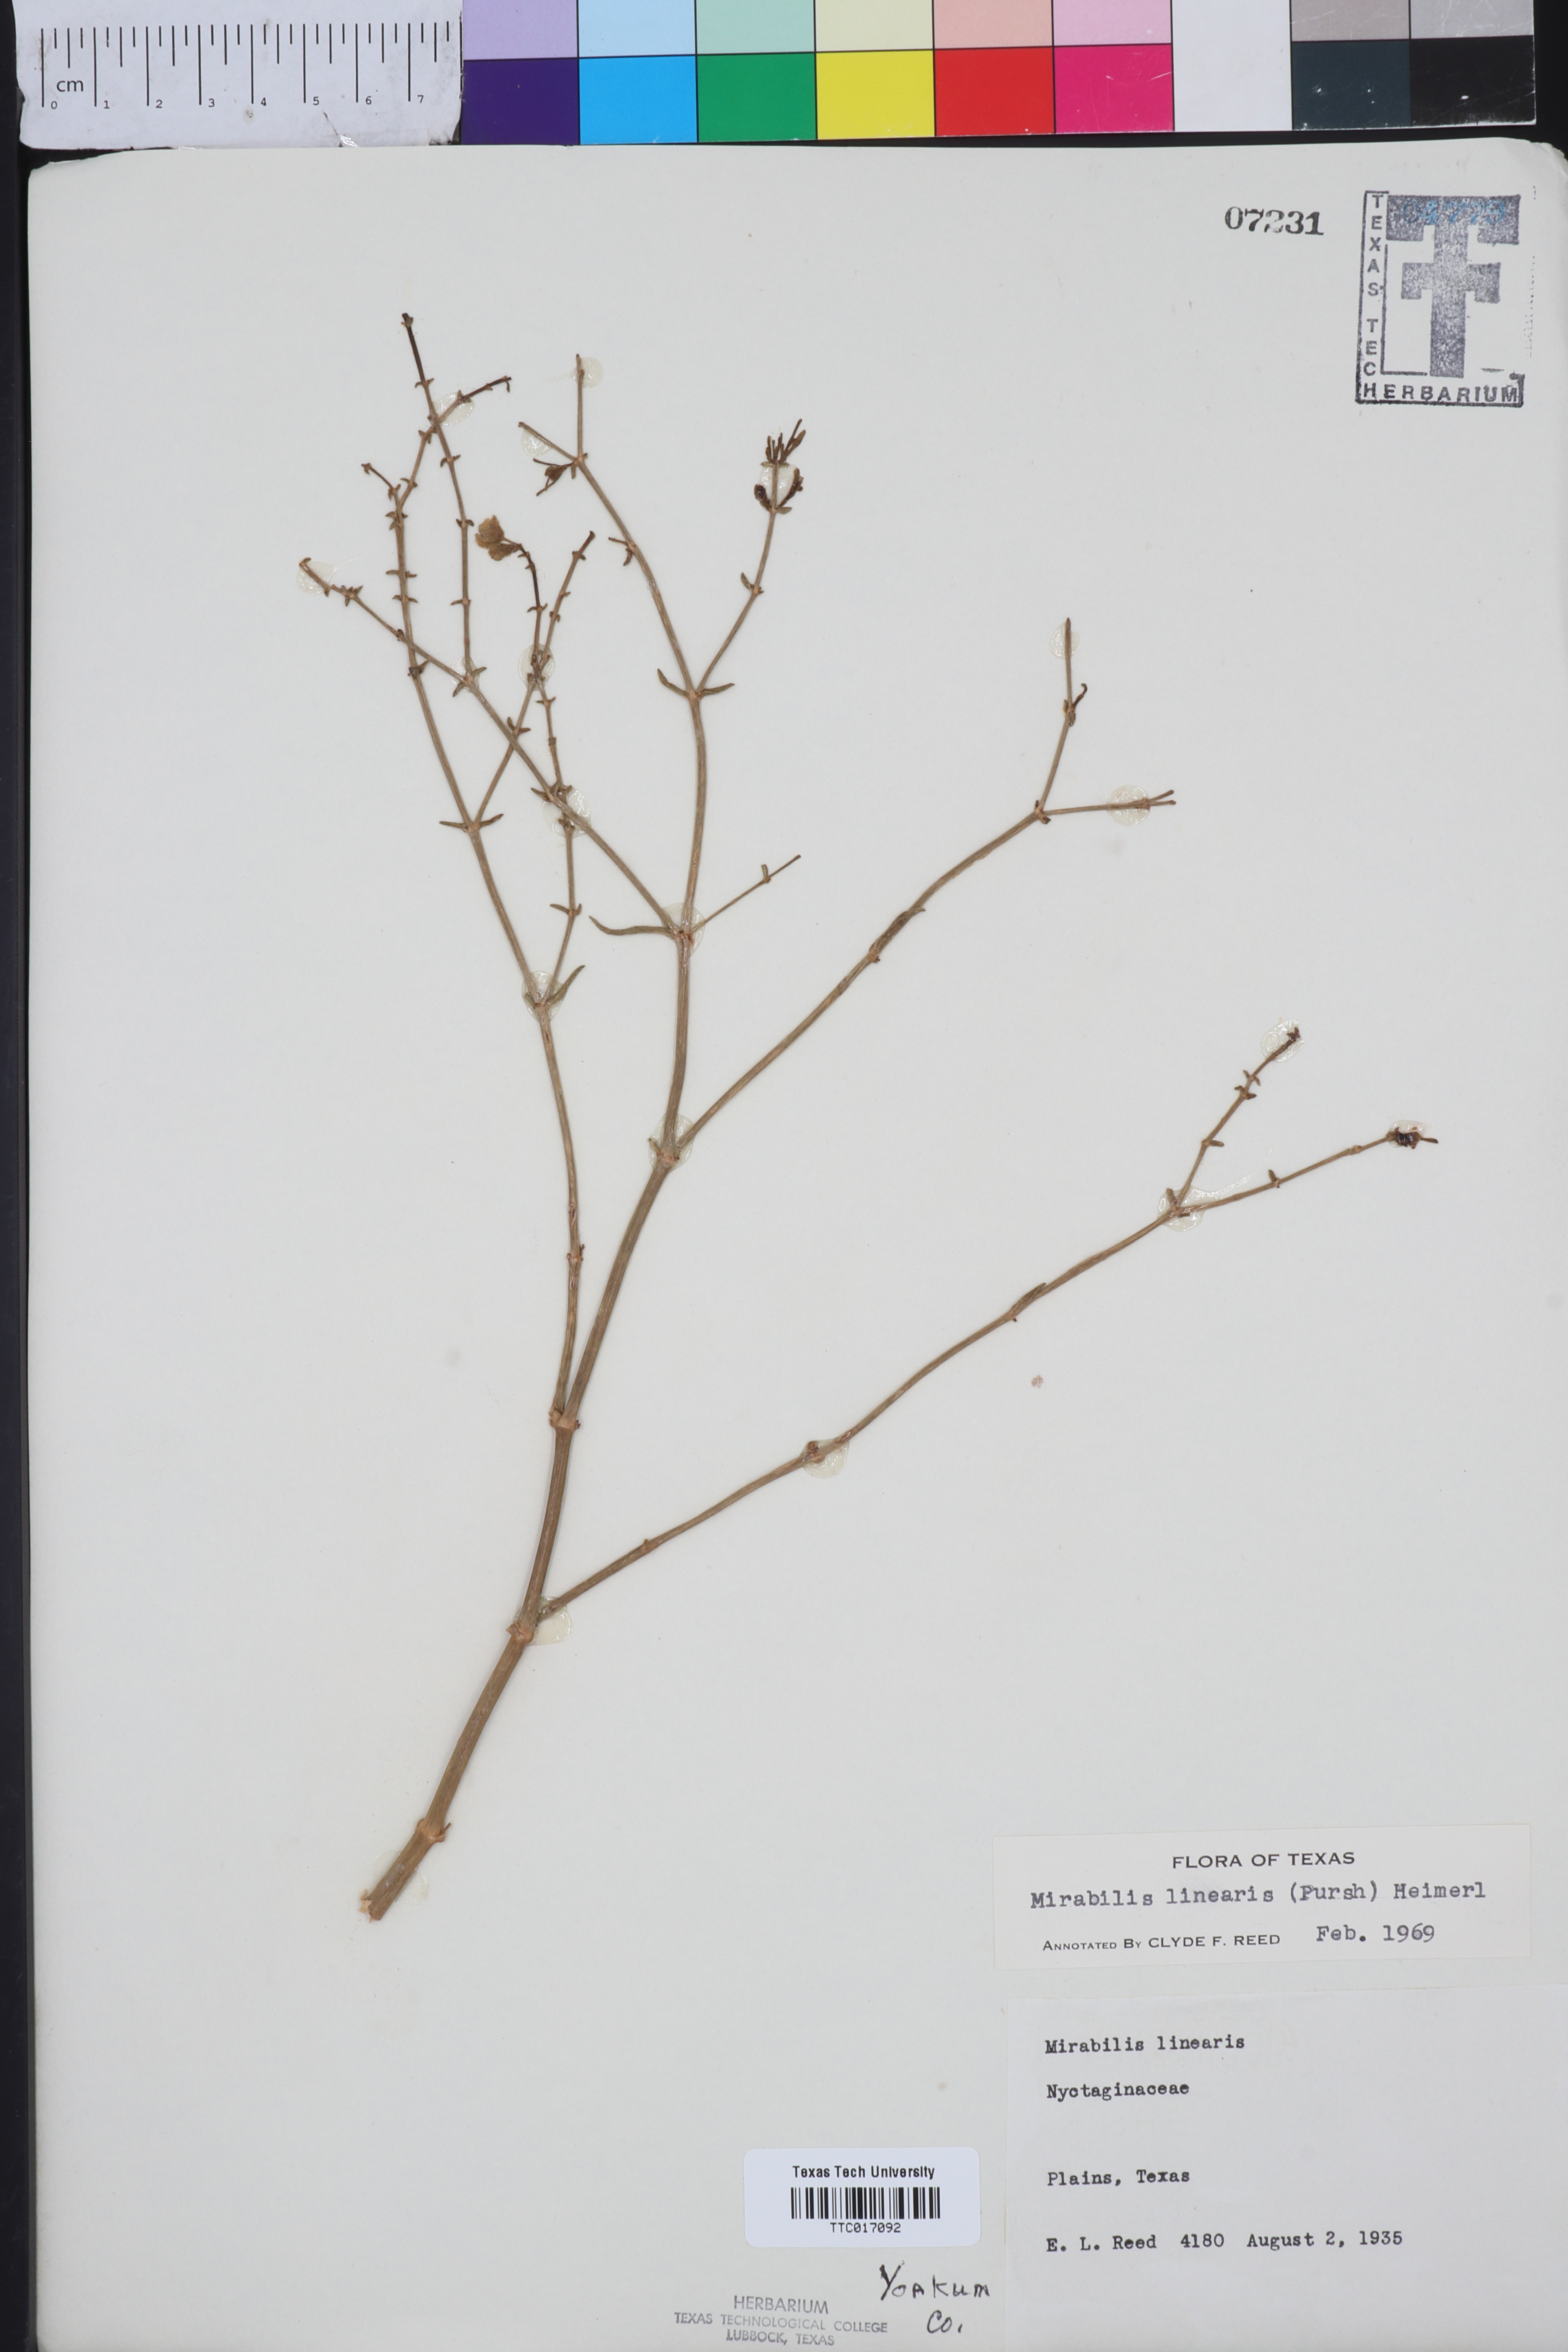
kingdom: Plantae
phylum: Tracheophyta
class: Magnoliopsida
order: Caryophyllales
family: Nyctaginaceae
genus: Mirabilis
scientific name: Mirabilis linearis
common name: Linear-leaved four-o'clock
